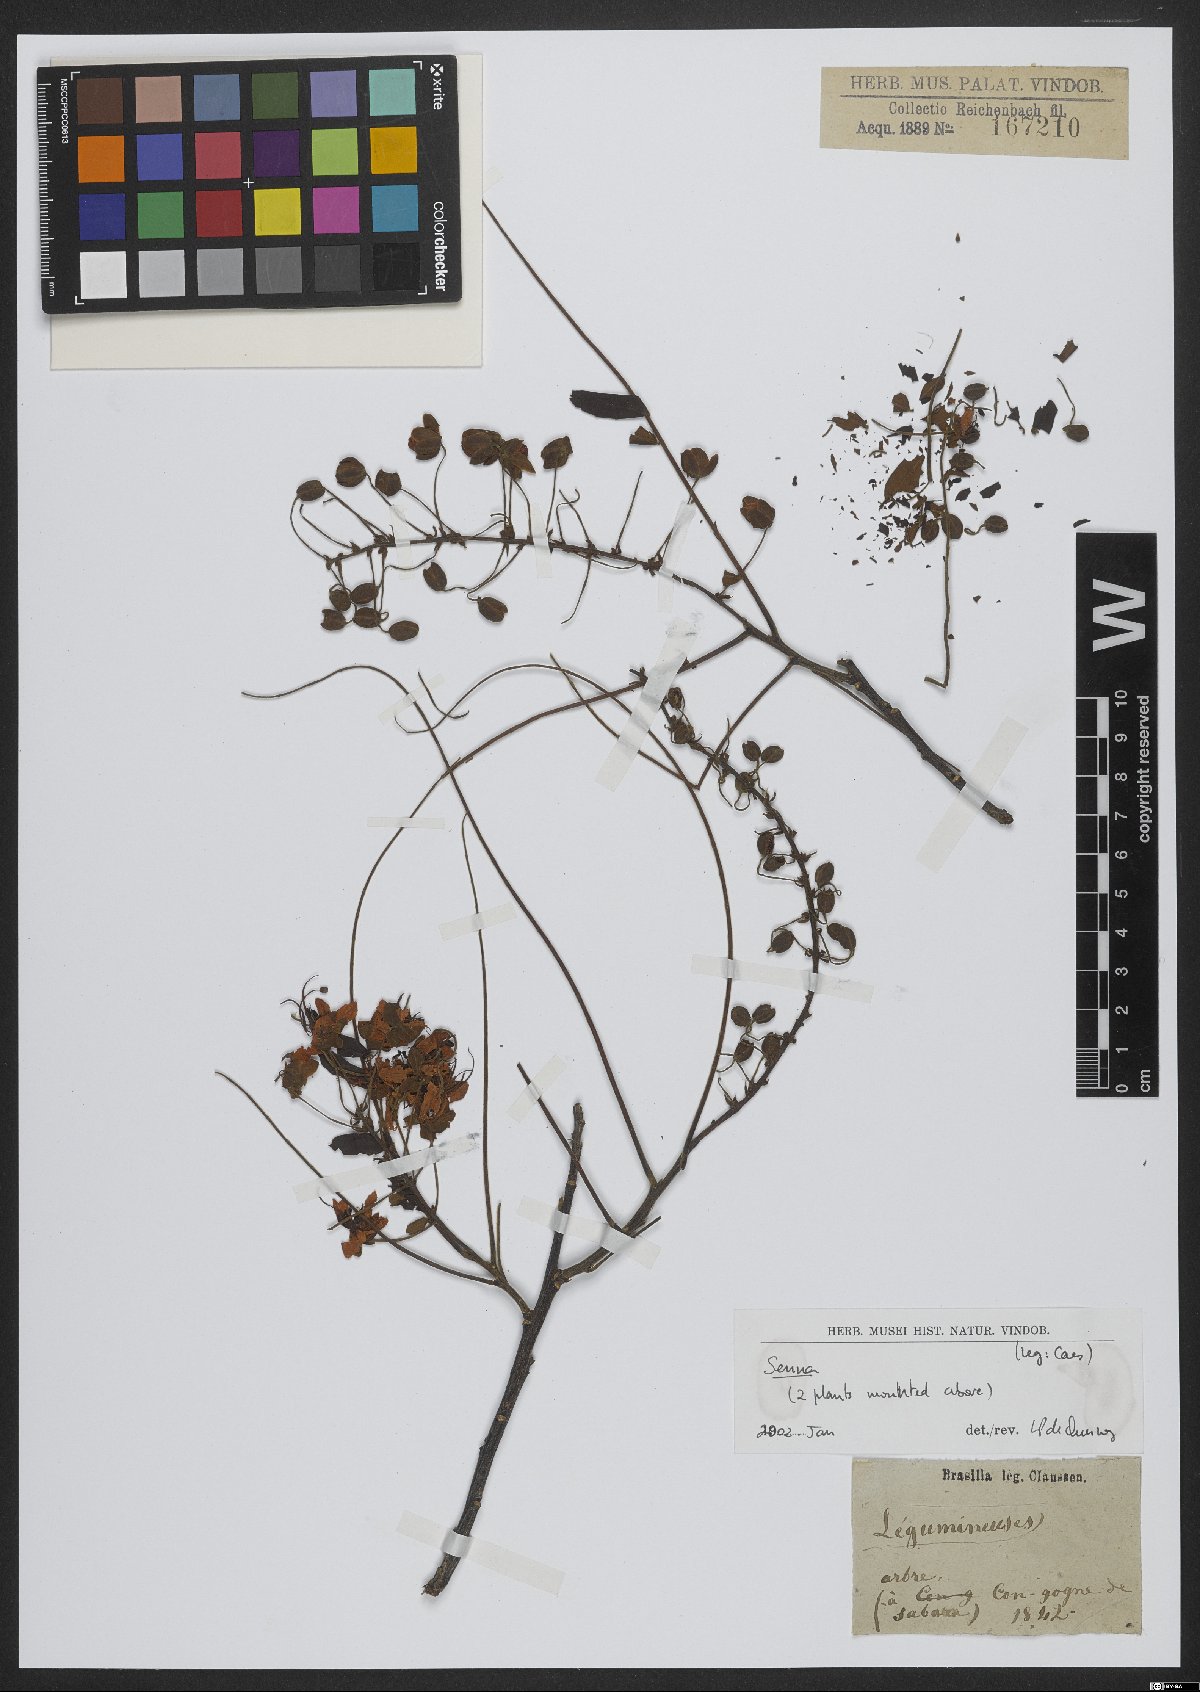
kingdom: Plantae
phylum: Tracheophyta
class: Magnoliopsida
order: Fabales
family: Fabaceae
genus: Senna
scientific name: Senna
